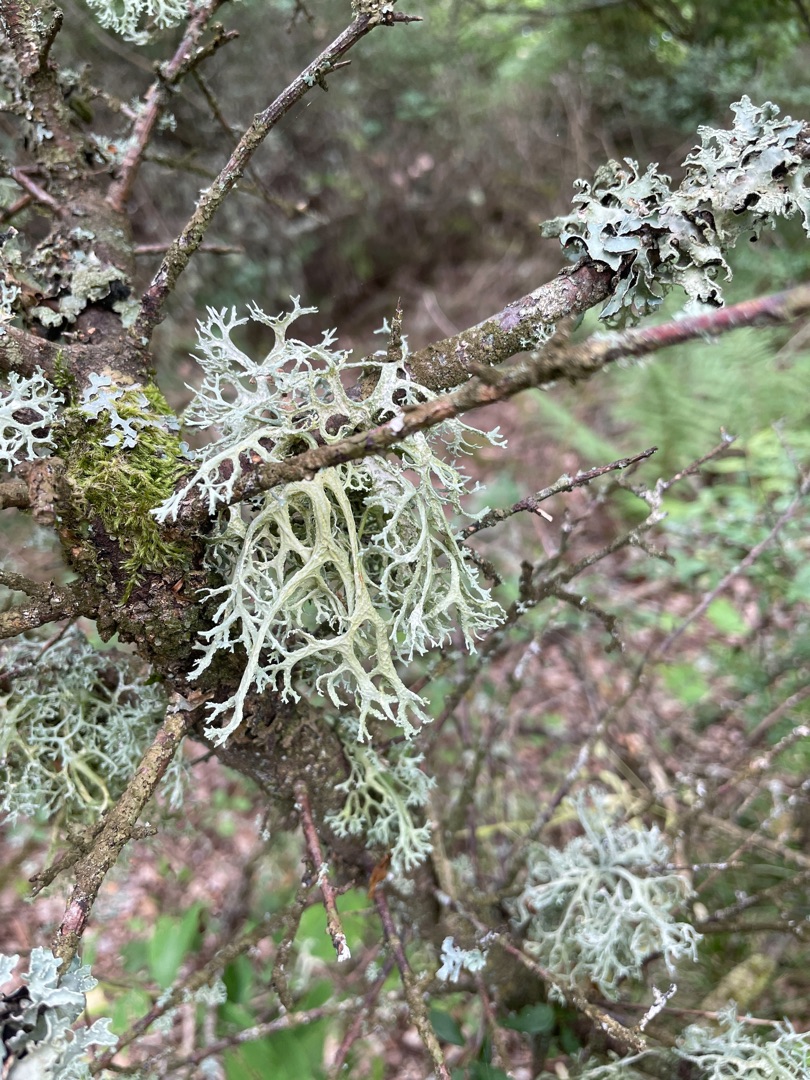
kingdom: Fungi
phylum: Ascomycota
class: Lecanoromycetes
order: Lecanorales
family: Parmeliaceae
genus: Evernia
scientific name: Evernia prunastri
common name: Almindelig slåenlav
